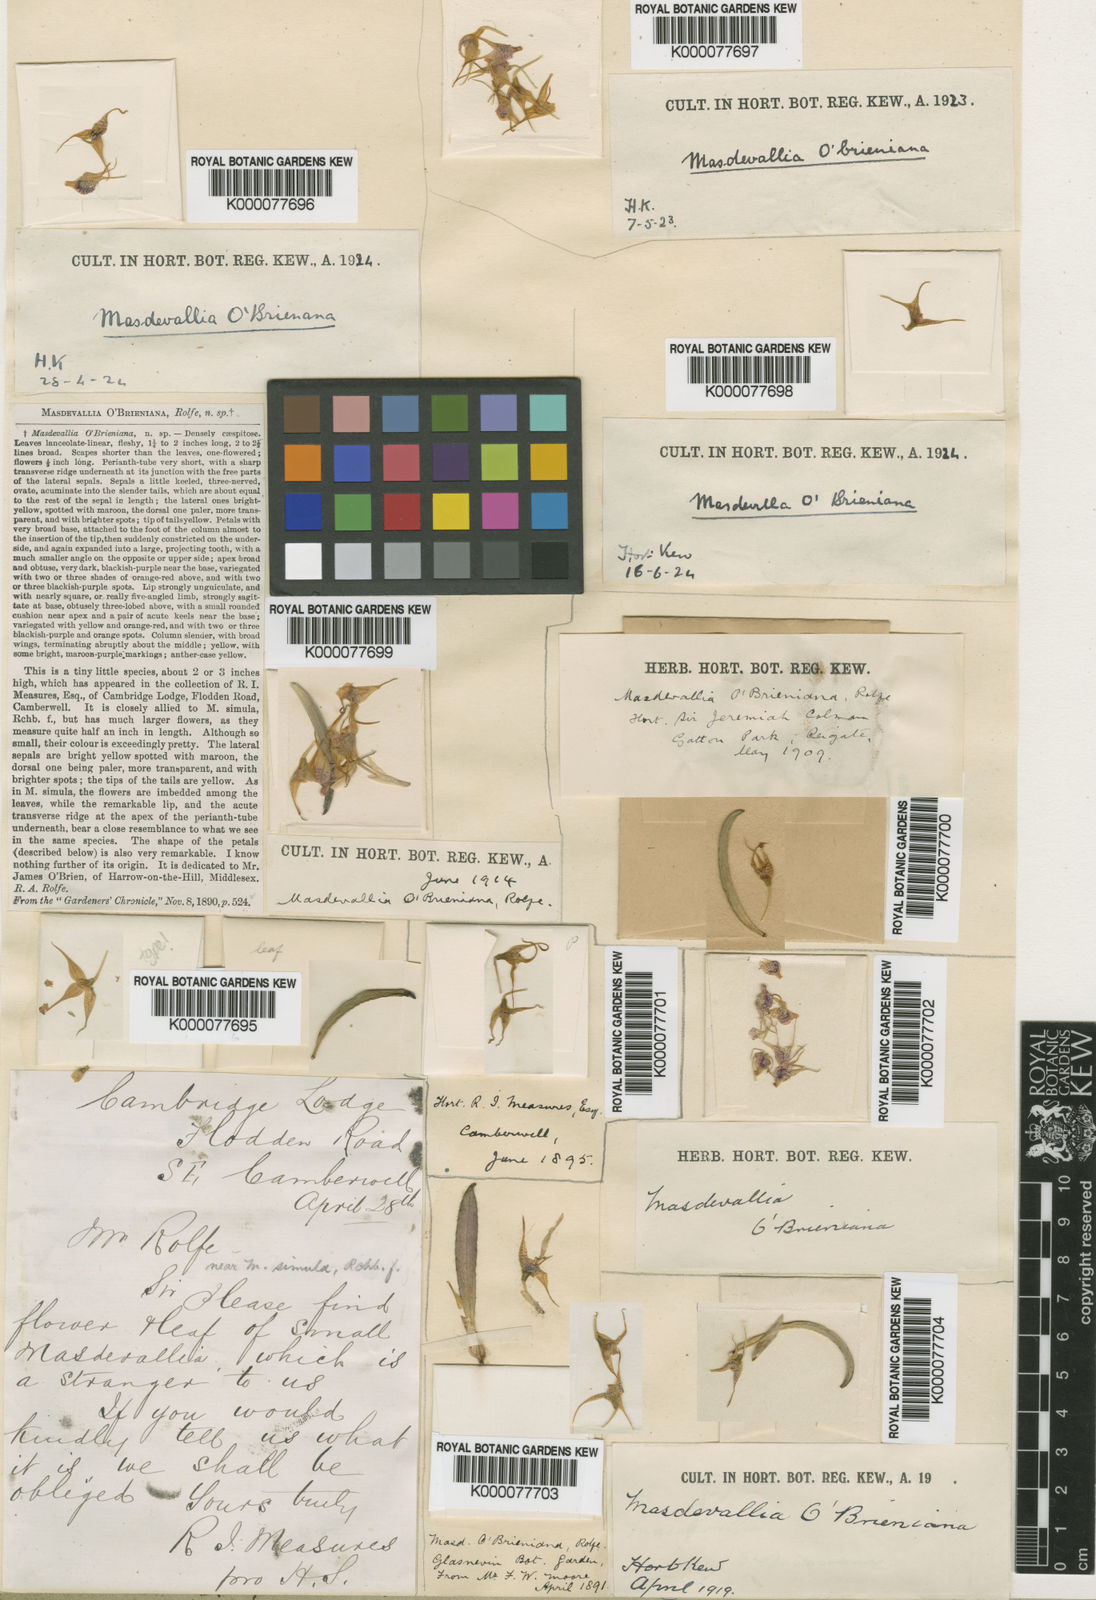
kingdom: Plantae
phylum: Tracheophyta
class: Liliopsida
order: Asparagales
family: Orchidaceae
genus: Dryadella
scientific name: Dryadella aviceps
